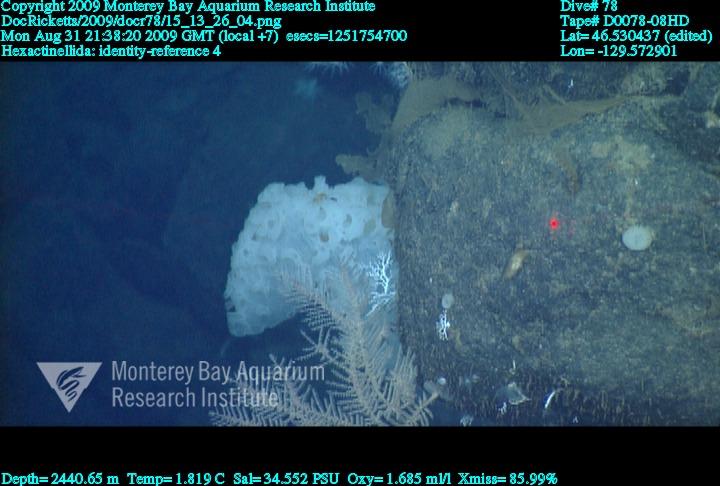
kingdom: Animalia
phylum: Porifera
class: Hexactinellida
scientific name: Hexactinellida
